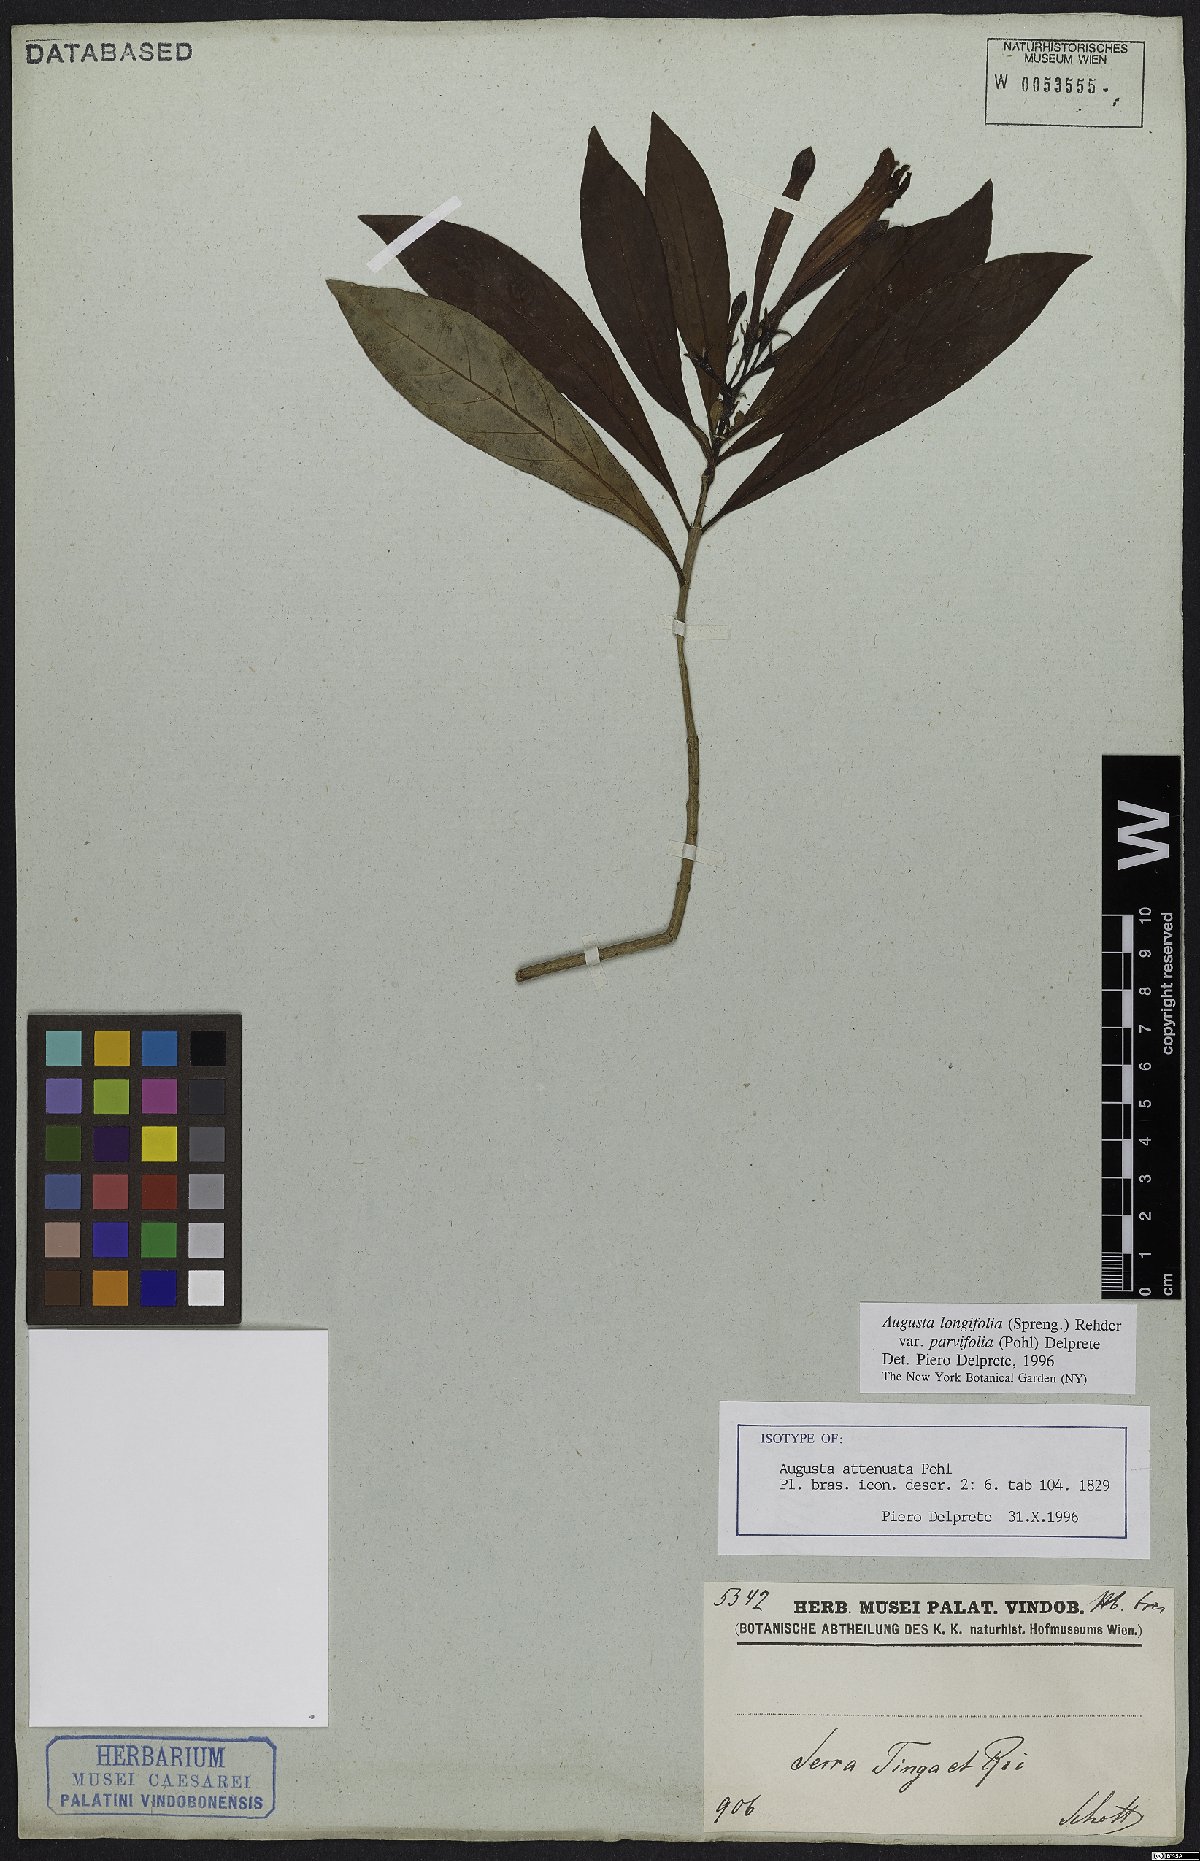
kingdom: Plantae
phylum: Tracheophyta
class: Magnoliopsida
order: Gentianales
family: Rubiaceae
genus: Augusta
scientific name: Augusta longifolia
